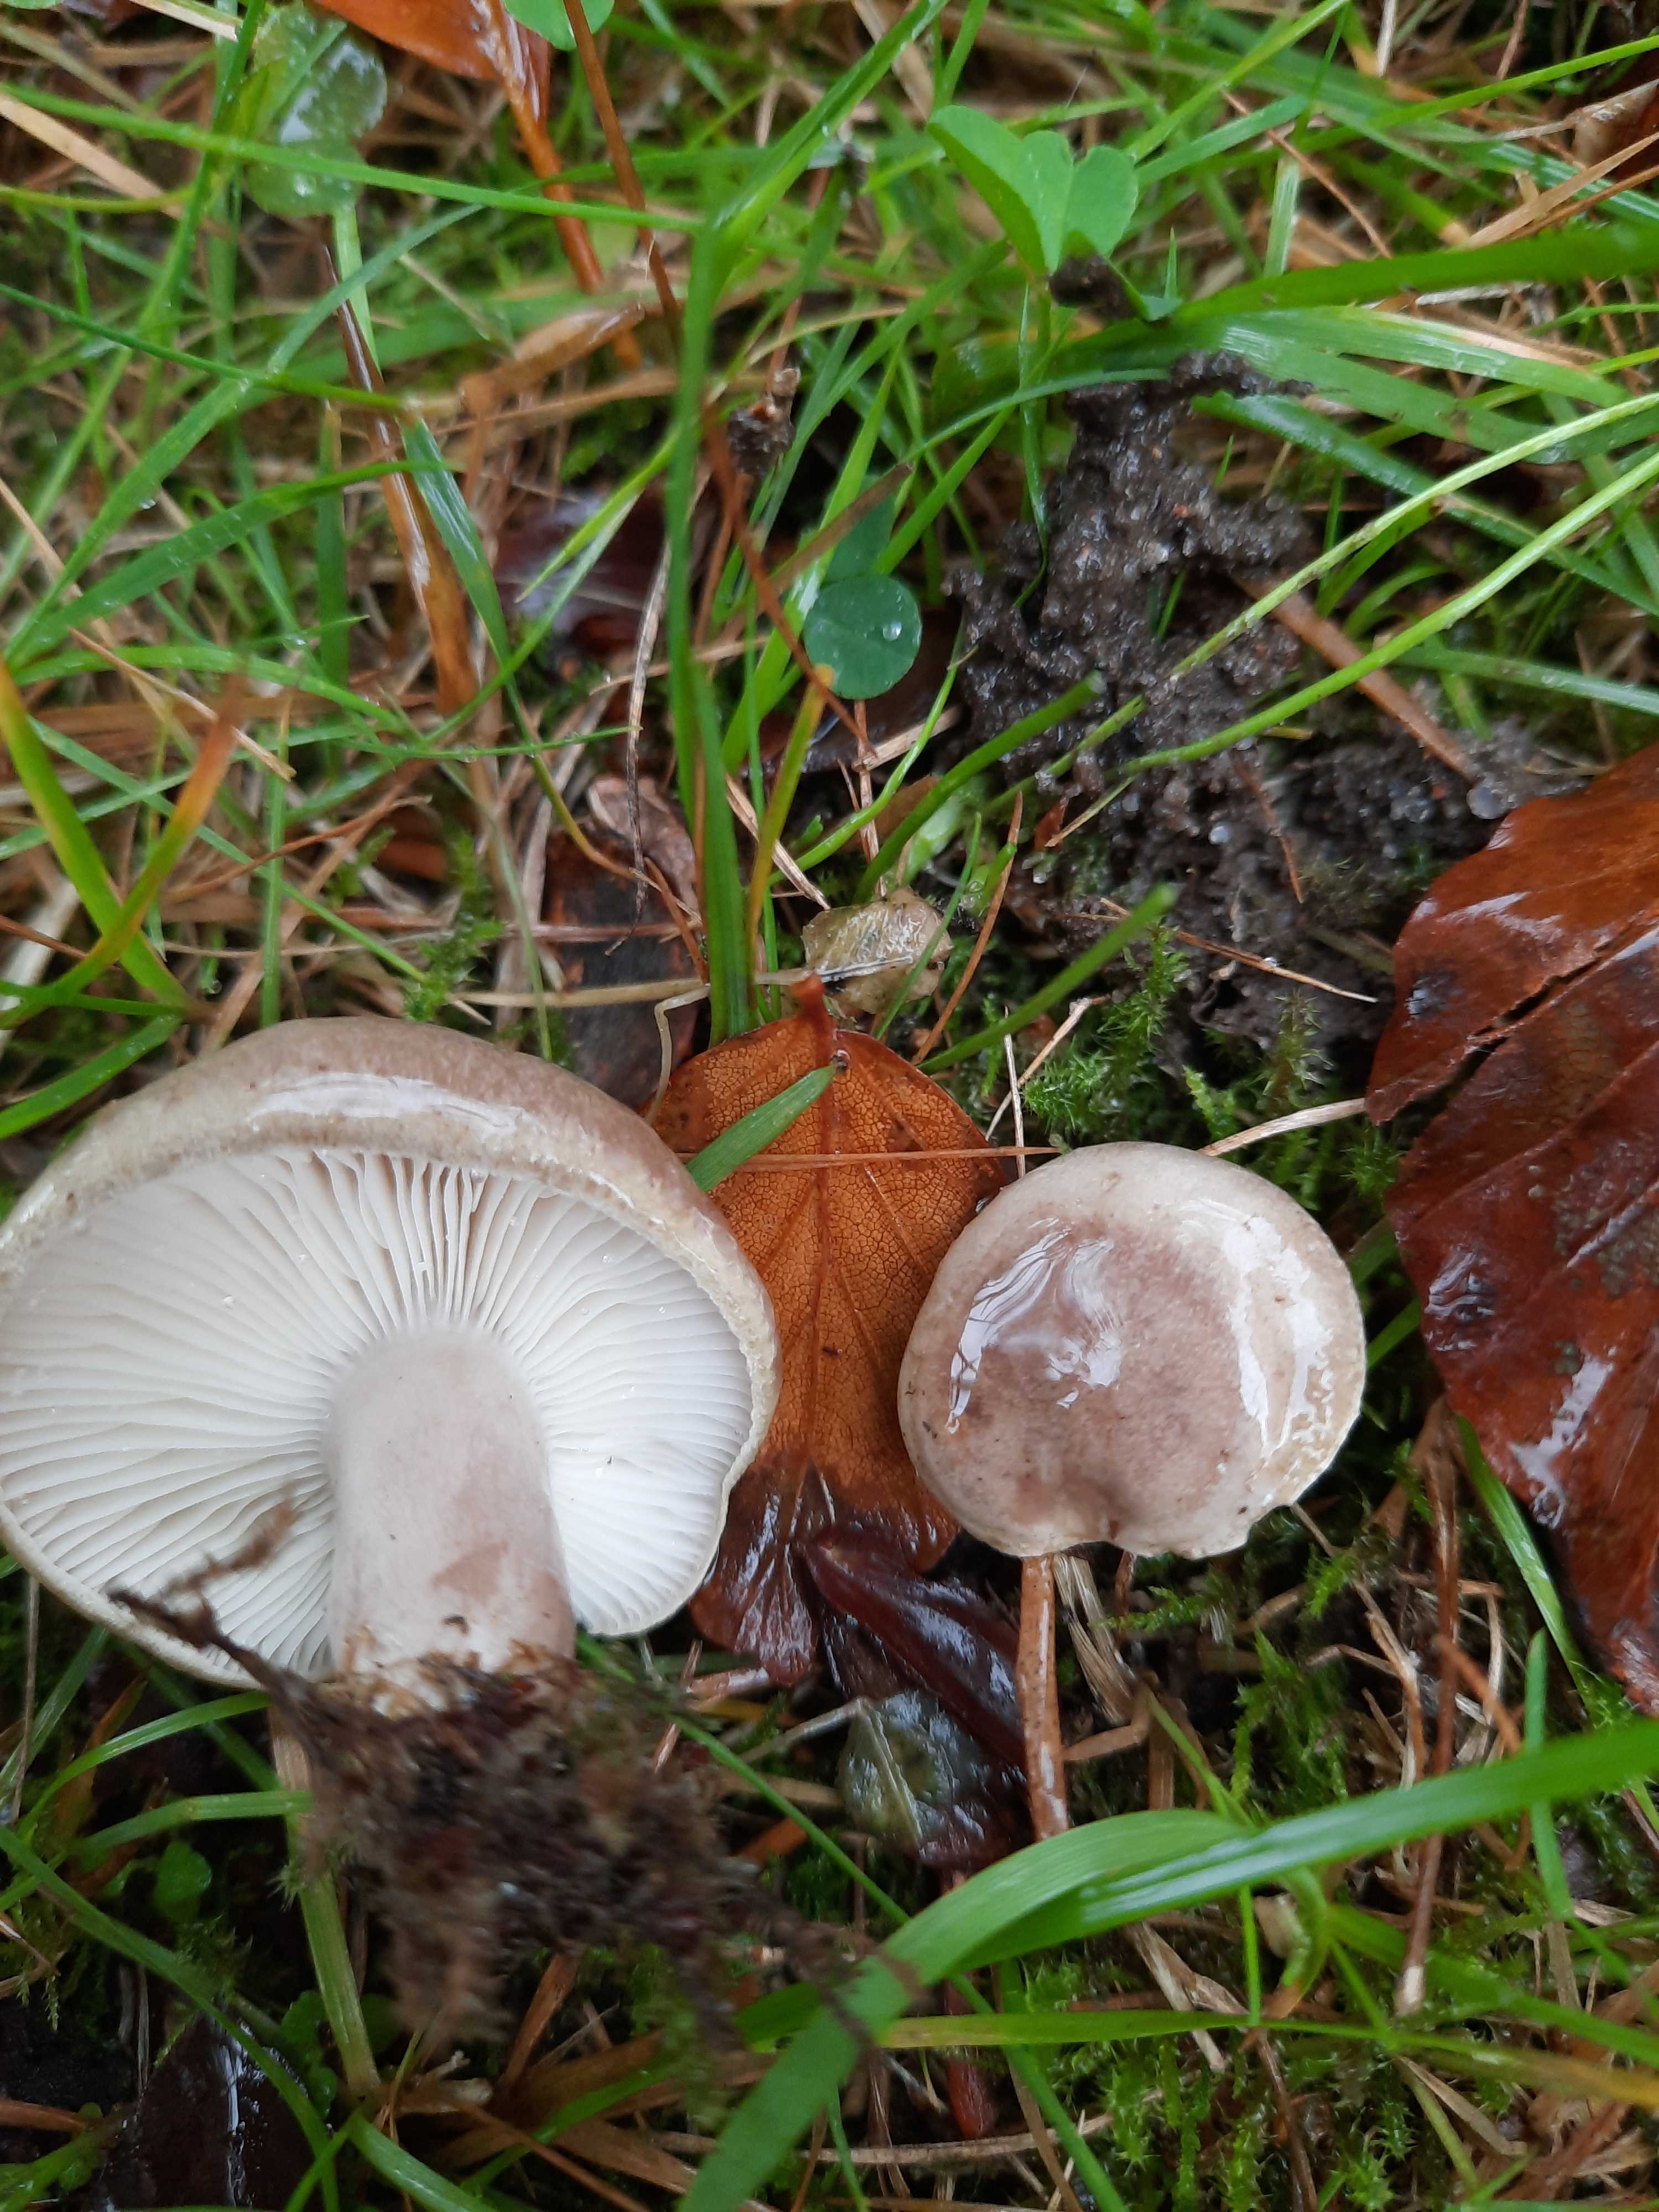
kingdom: Fungi
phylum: Basidiomycota
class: Agaricomycetes
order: Russulales
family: Russulaceae
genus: Lactarius
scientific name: Lactarius blennius
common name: dråbeplettet mælkehat
